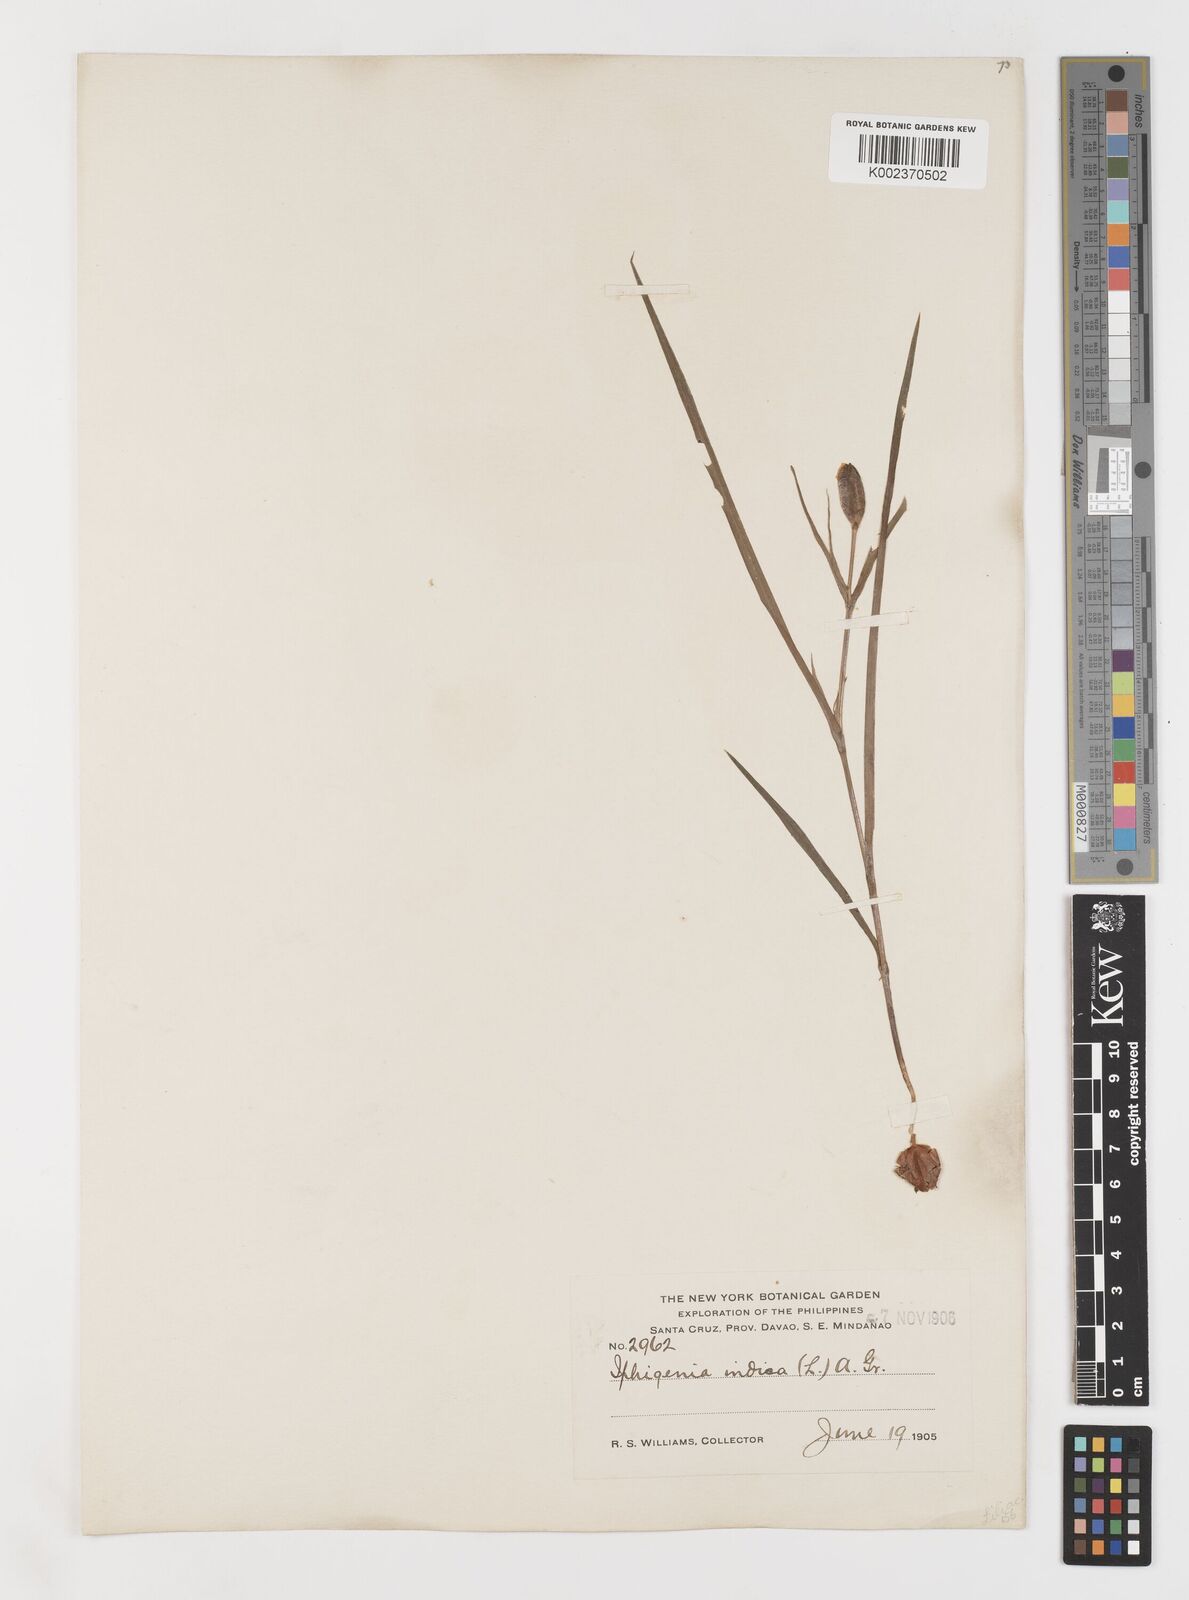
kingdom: Plantae
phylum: Tracheophyta
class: Liliopsida
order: Liliales
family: Colchicaceae
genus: Iphigenia
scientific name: Iphigenia indica
